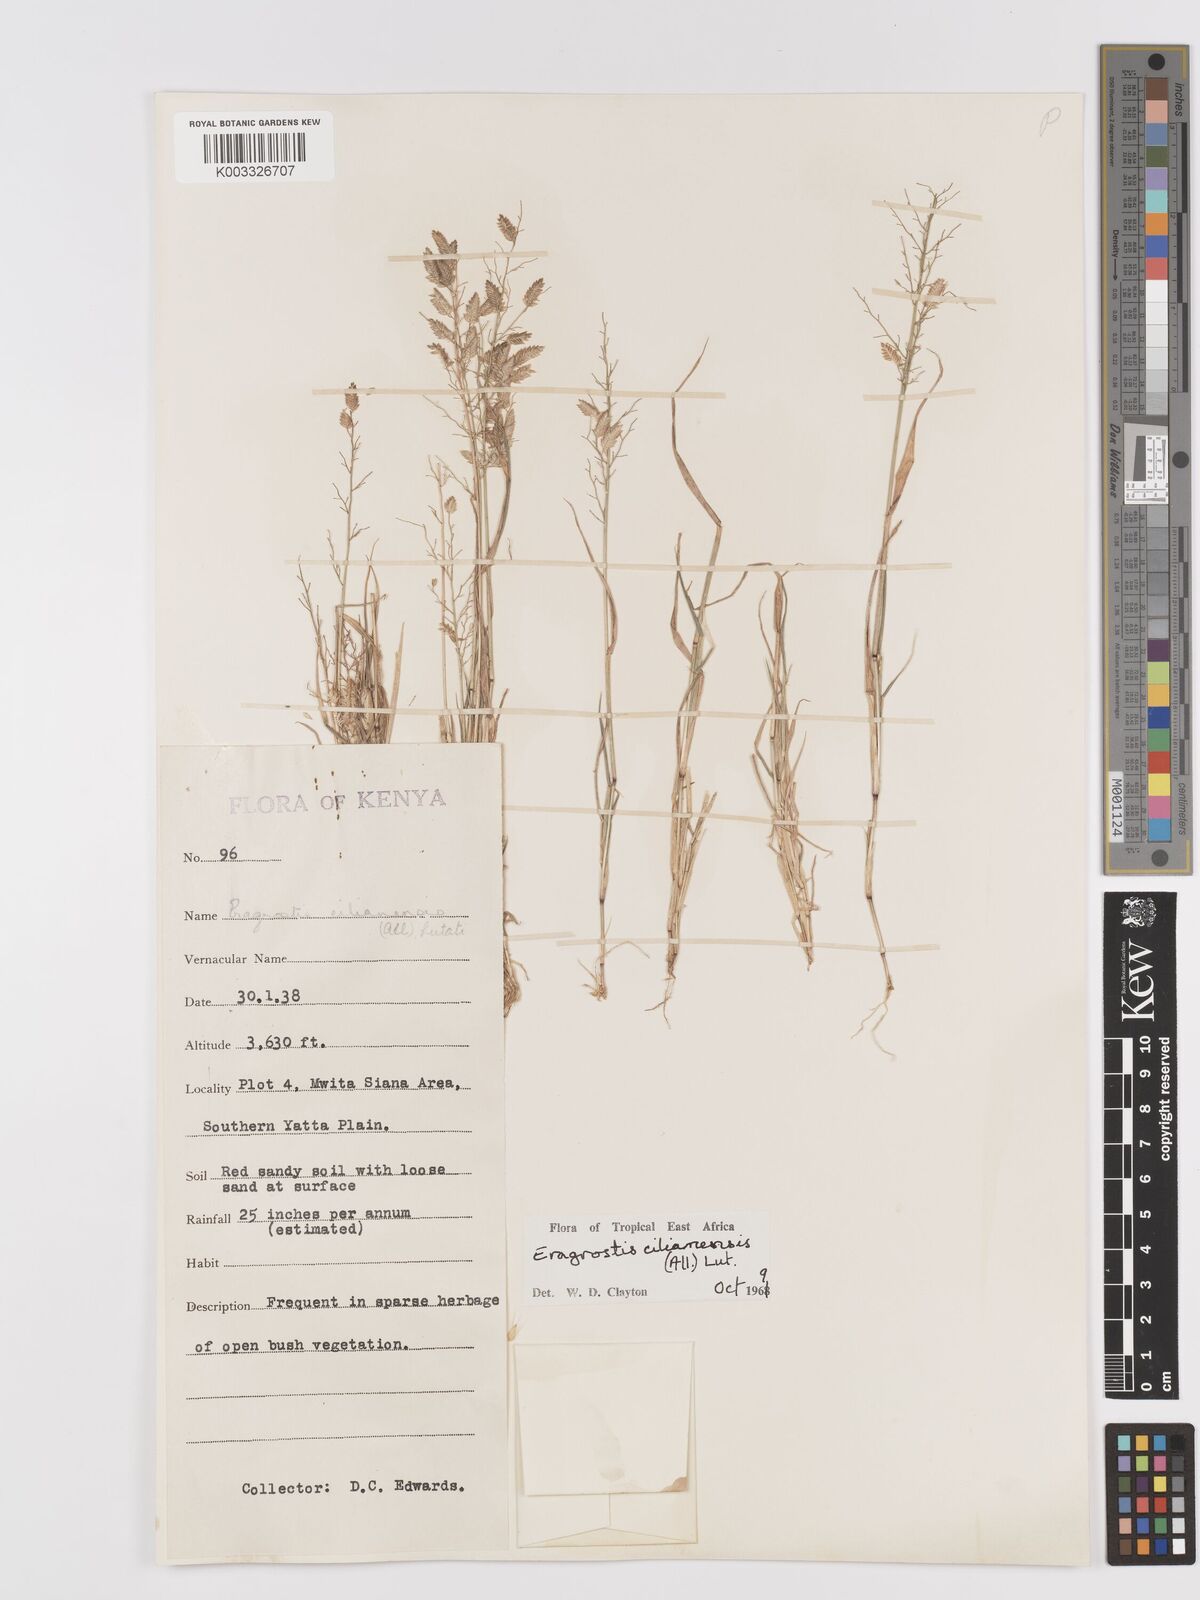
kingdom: Plantae
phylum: Tracheophyta
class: Liliopsida
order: Poales
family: Poaceae
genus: Eragrostis
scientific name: Eragrostis cilianensis
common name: Stinkgrass
